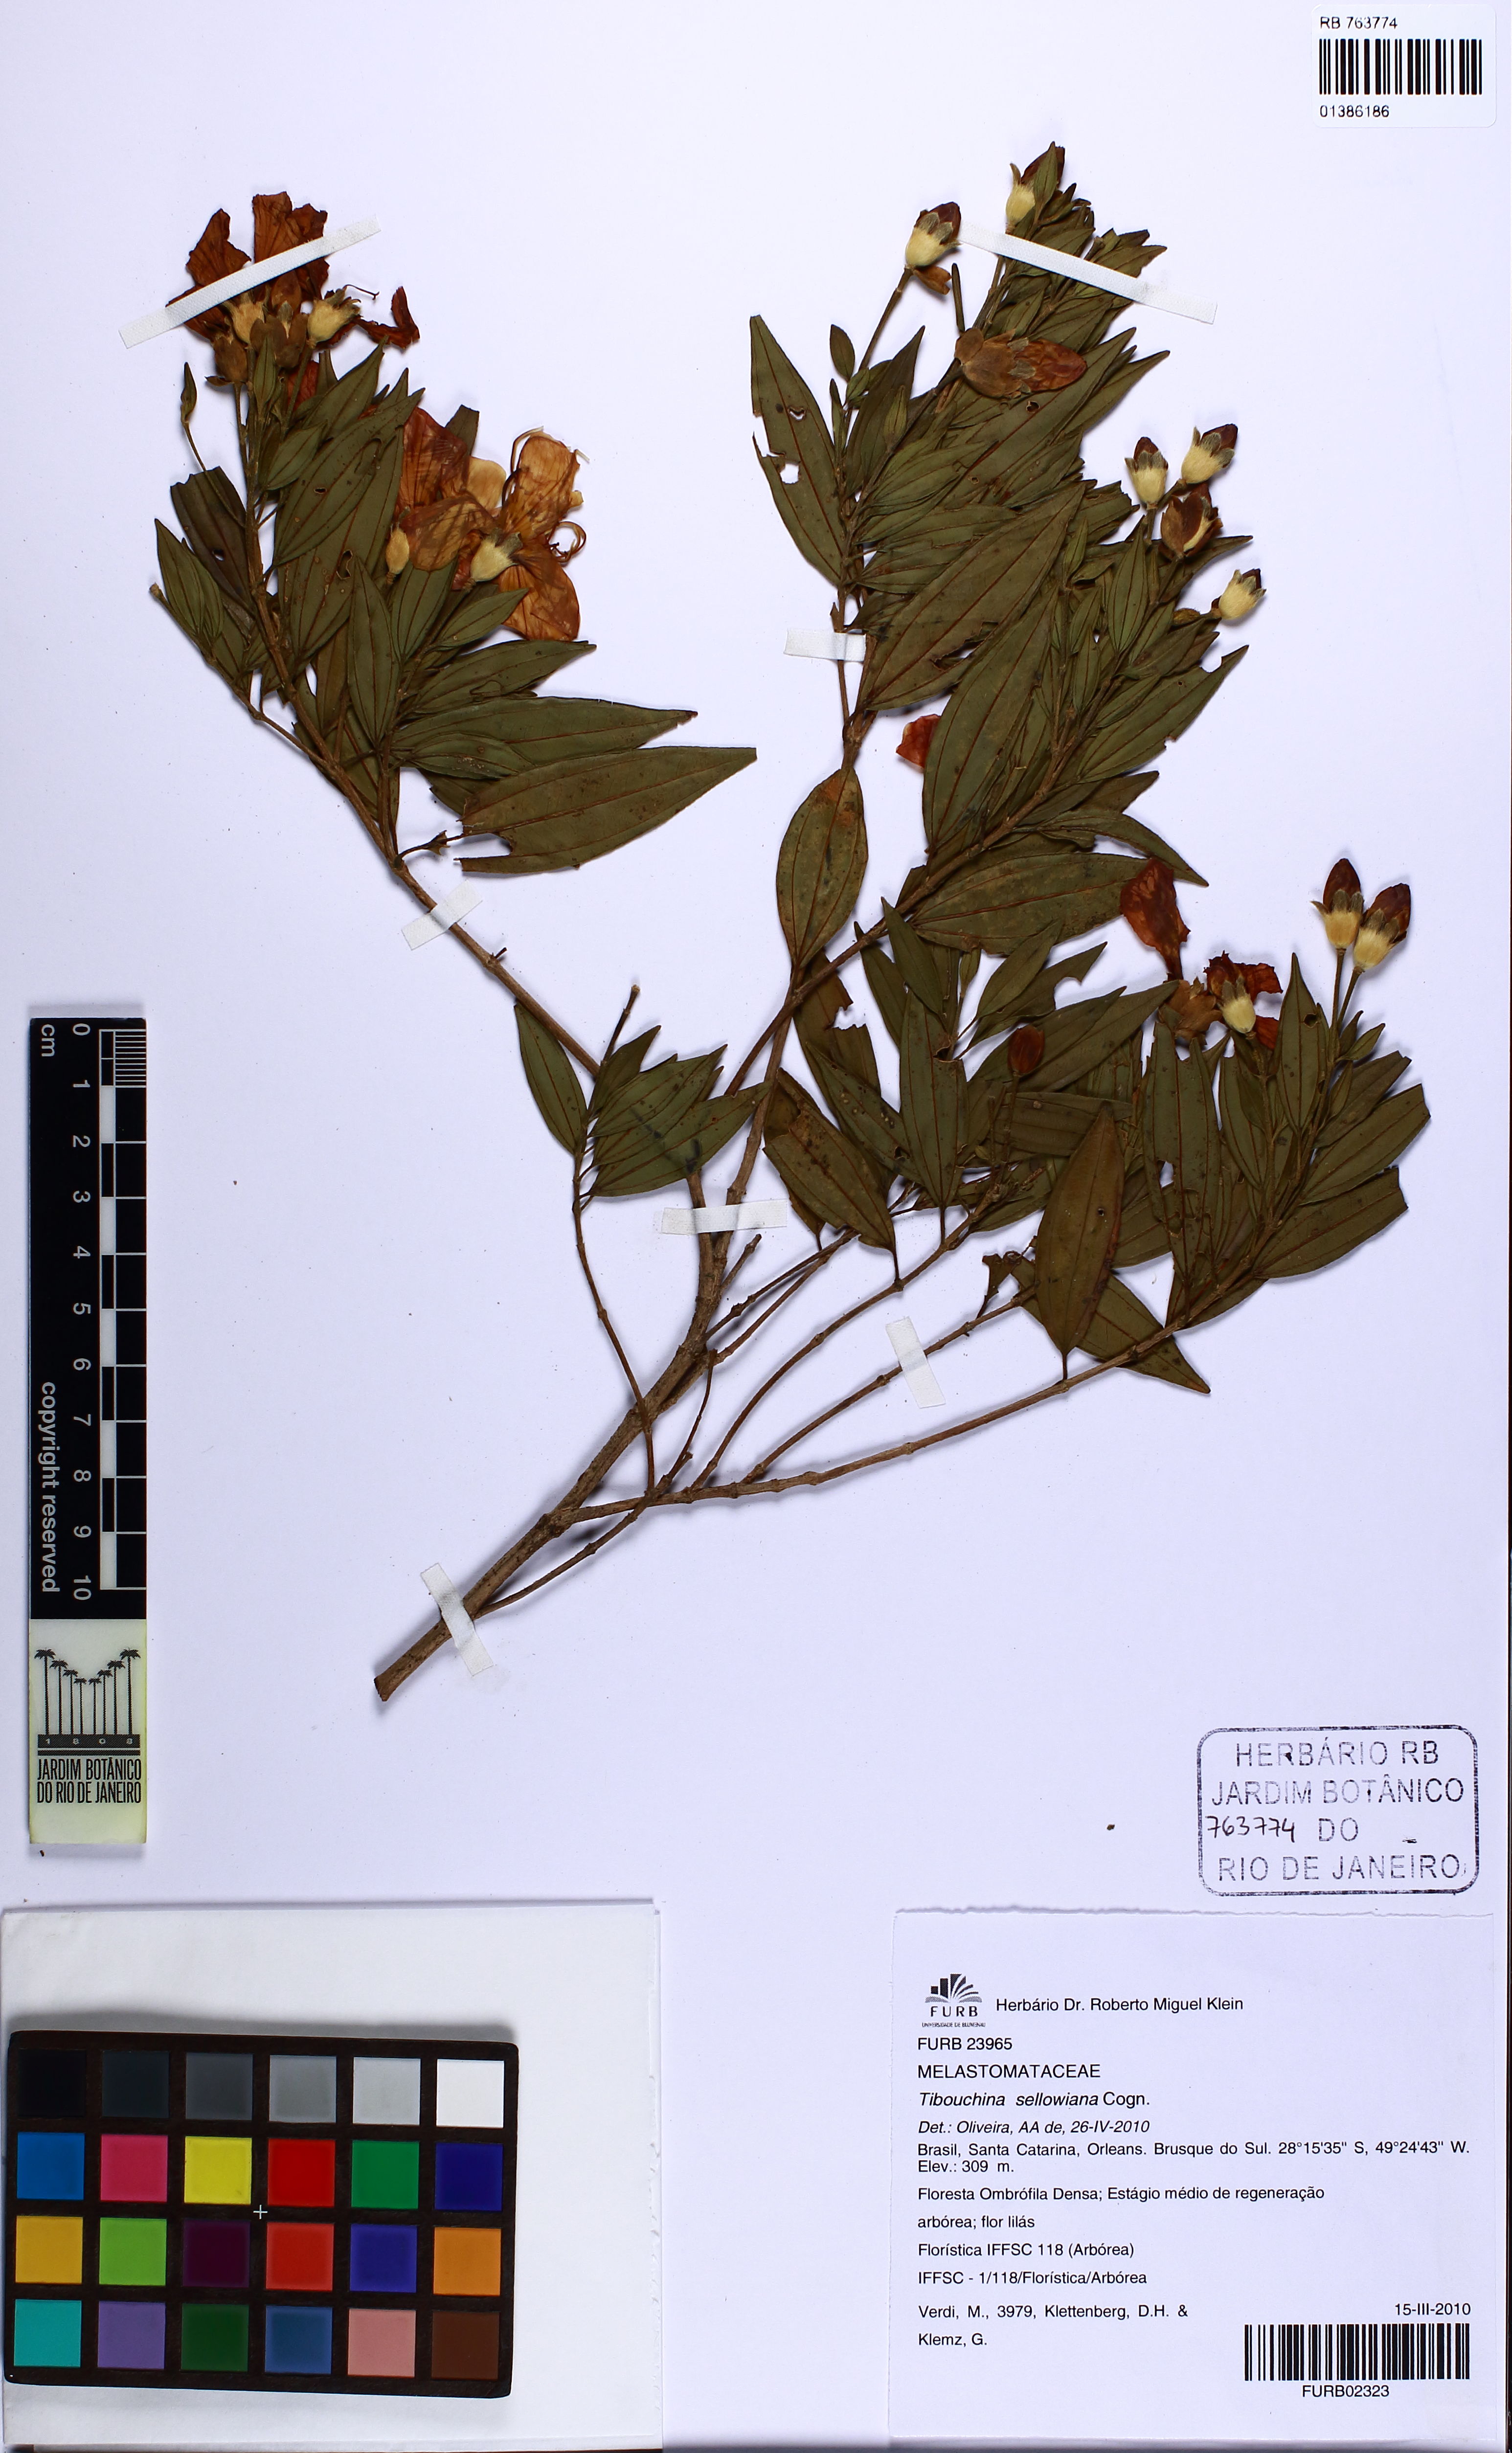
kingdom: Plantae
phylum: Tracheophyta
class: Magnoliopsida
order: Myrtales
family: Melastomataceae
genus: Pleroma
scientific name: Pleroma sellowianum
